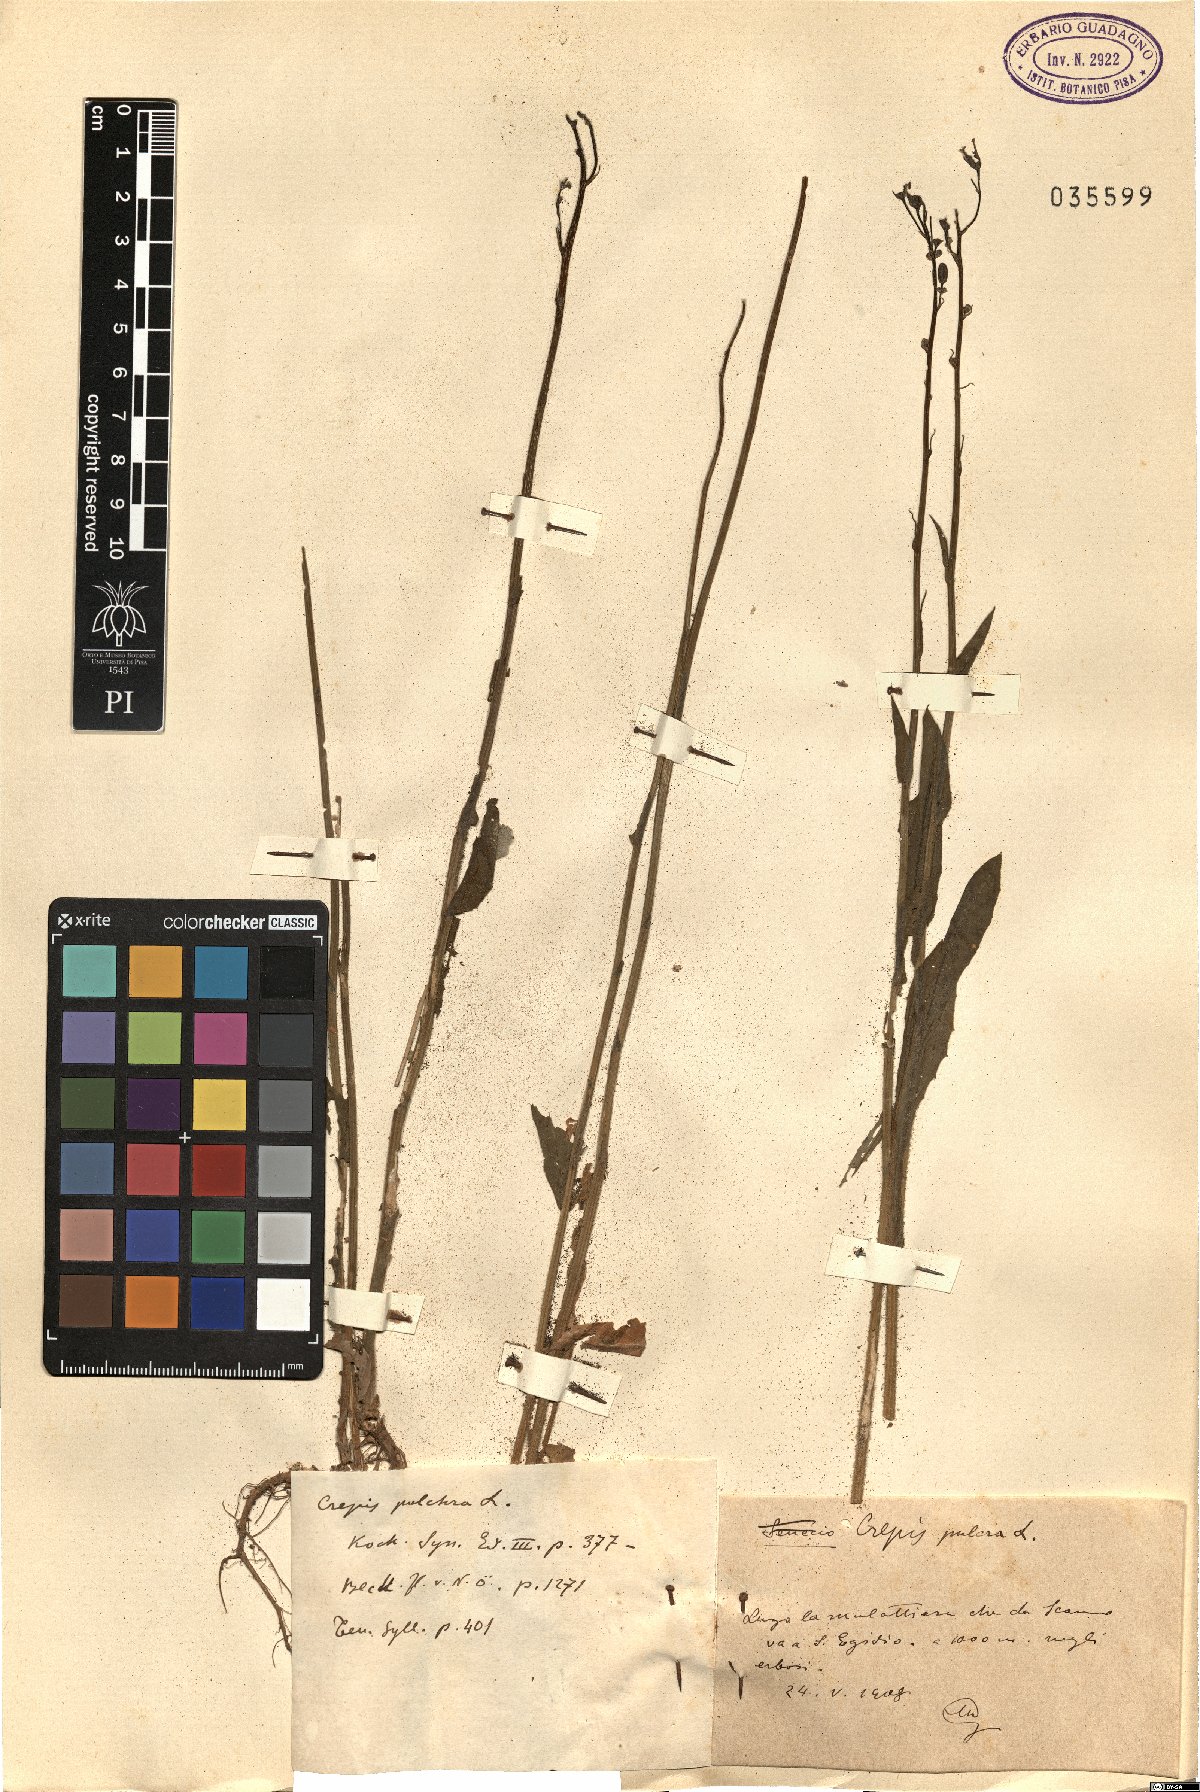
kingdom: Plantae
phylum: Tracheophyta
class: Magnoliopsida
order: Asterales
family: Asteraceae
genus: Crepis
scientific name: Crepis pulchra
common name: Hawk's-beard
